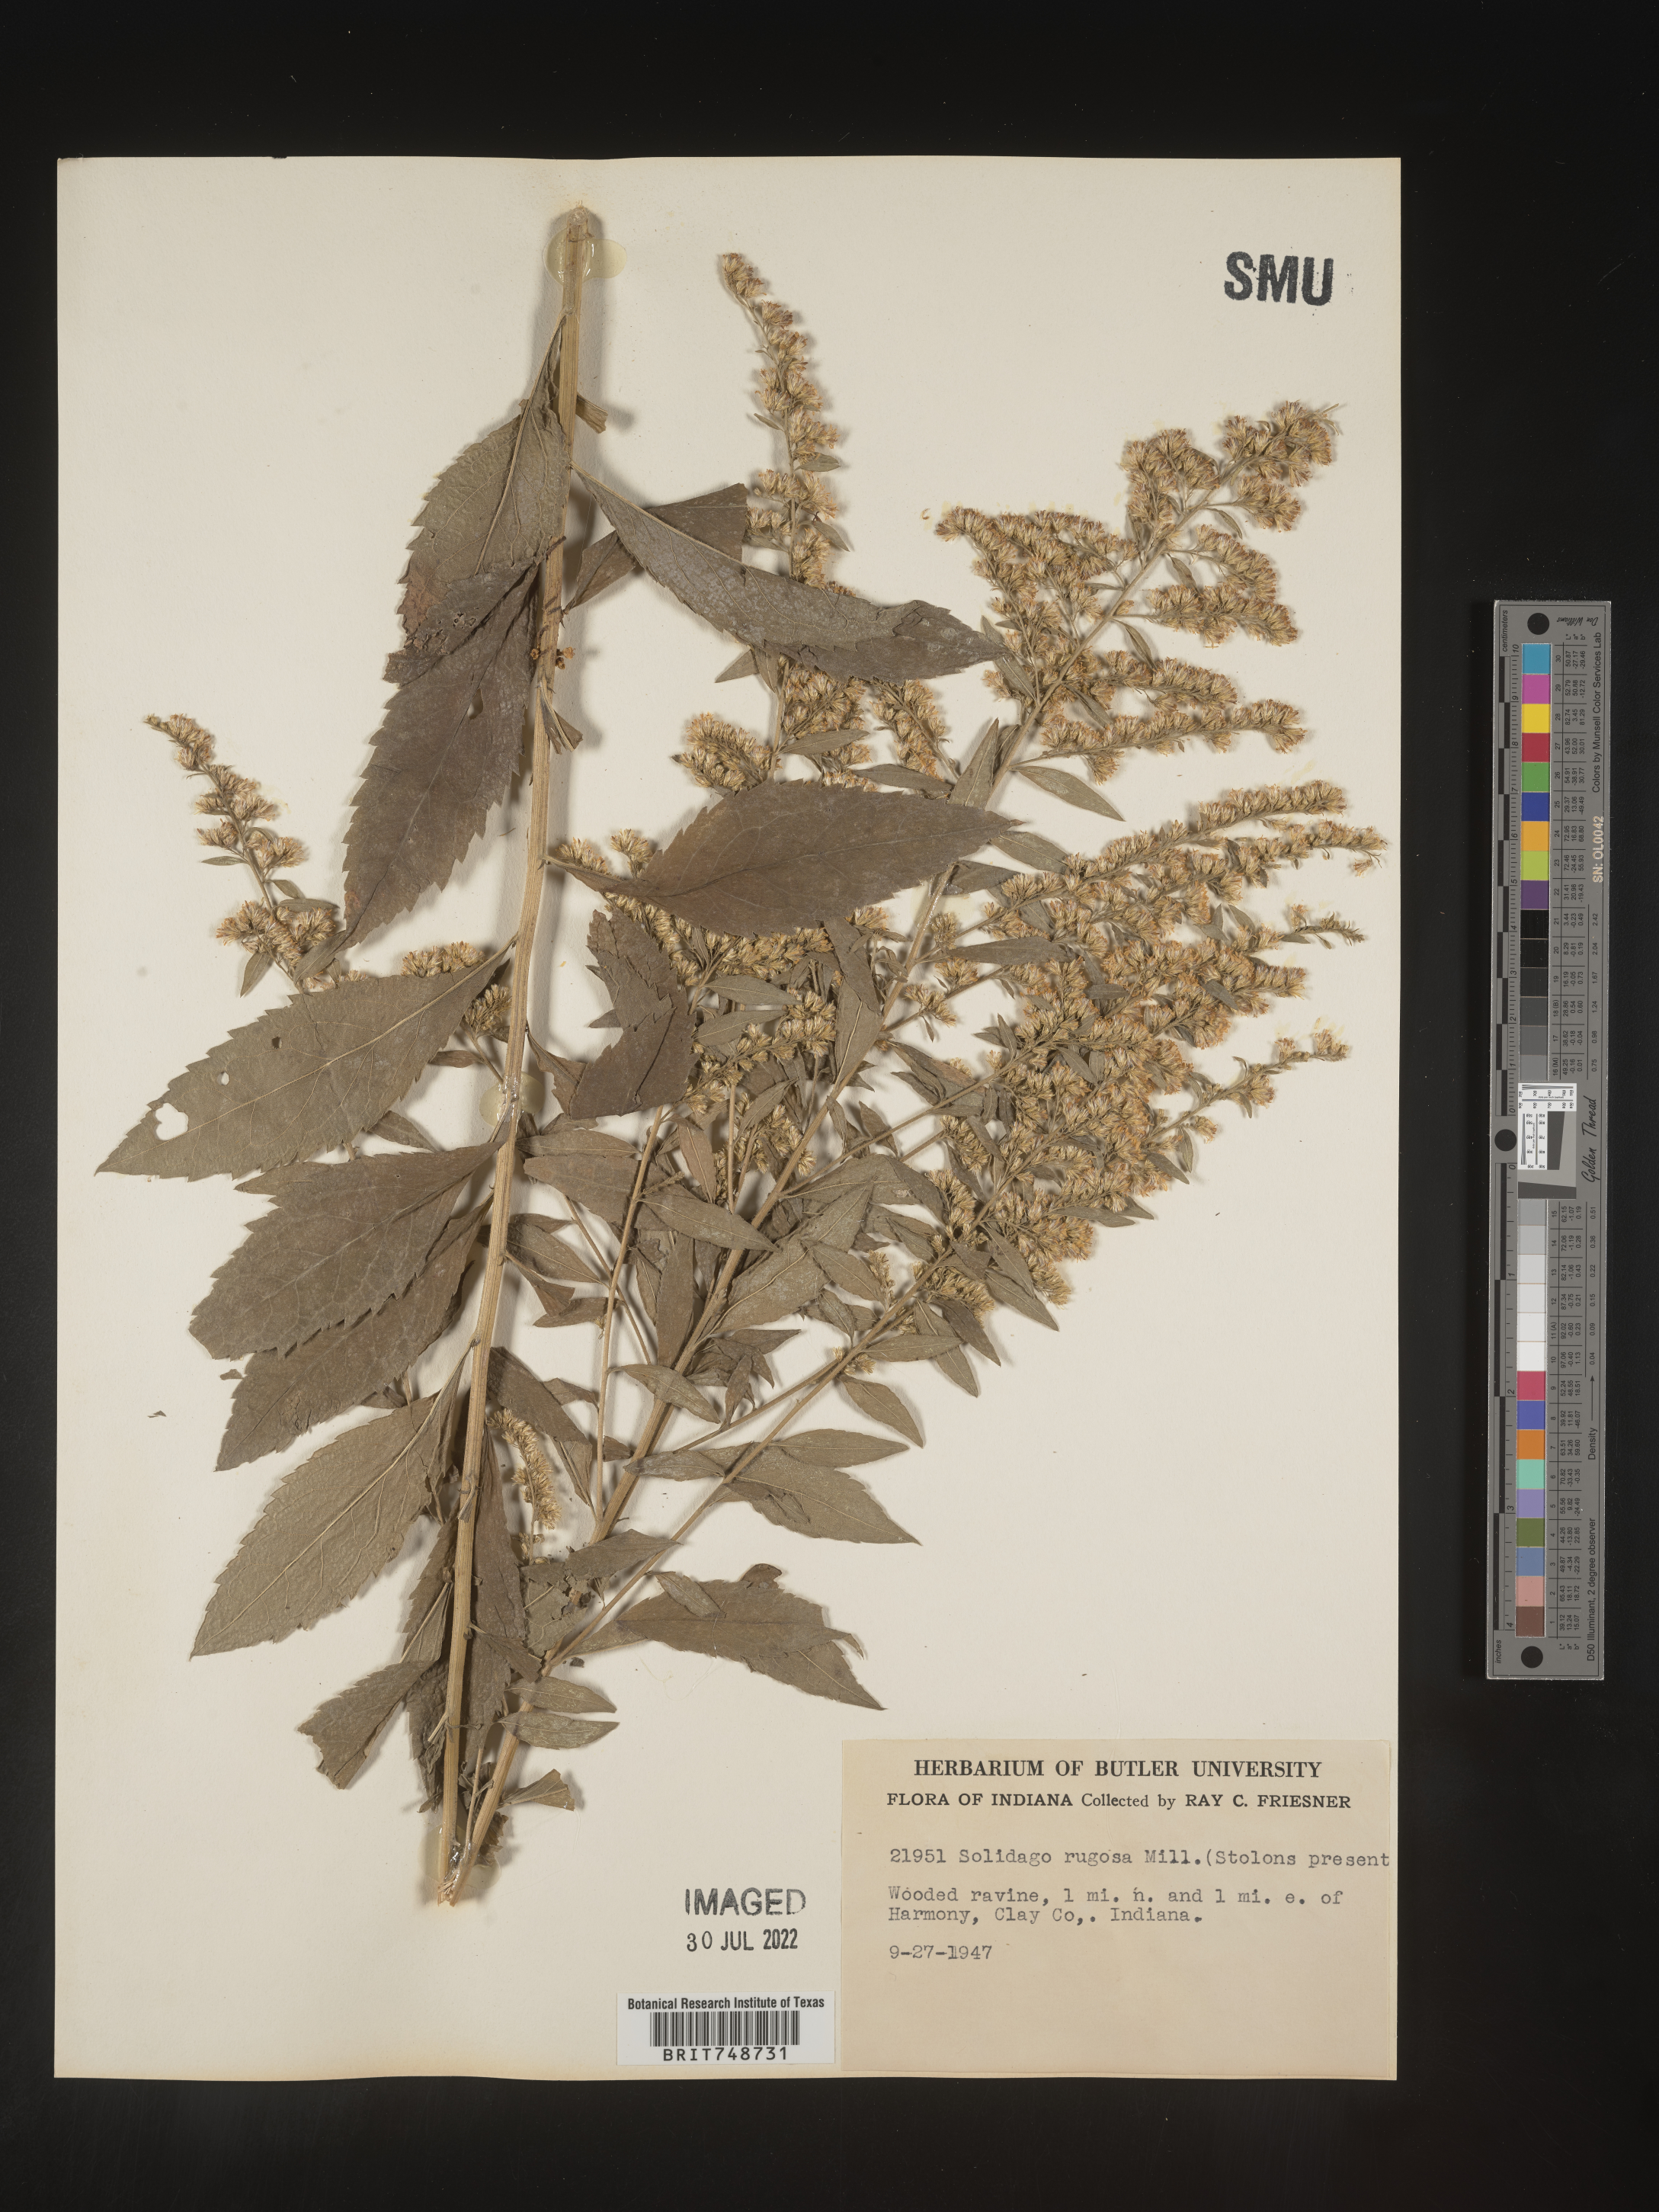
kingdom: Plantae
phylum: Tracheophyta
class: Magnoliopsida
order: Asterales
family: Asteraceae
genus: Solidago
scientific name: Solidago rugosa
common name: Rough-stemmed goldenrod
